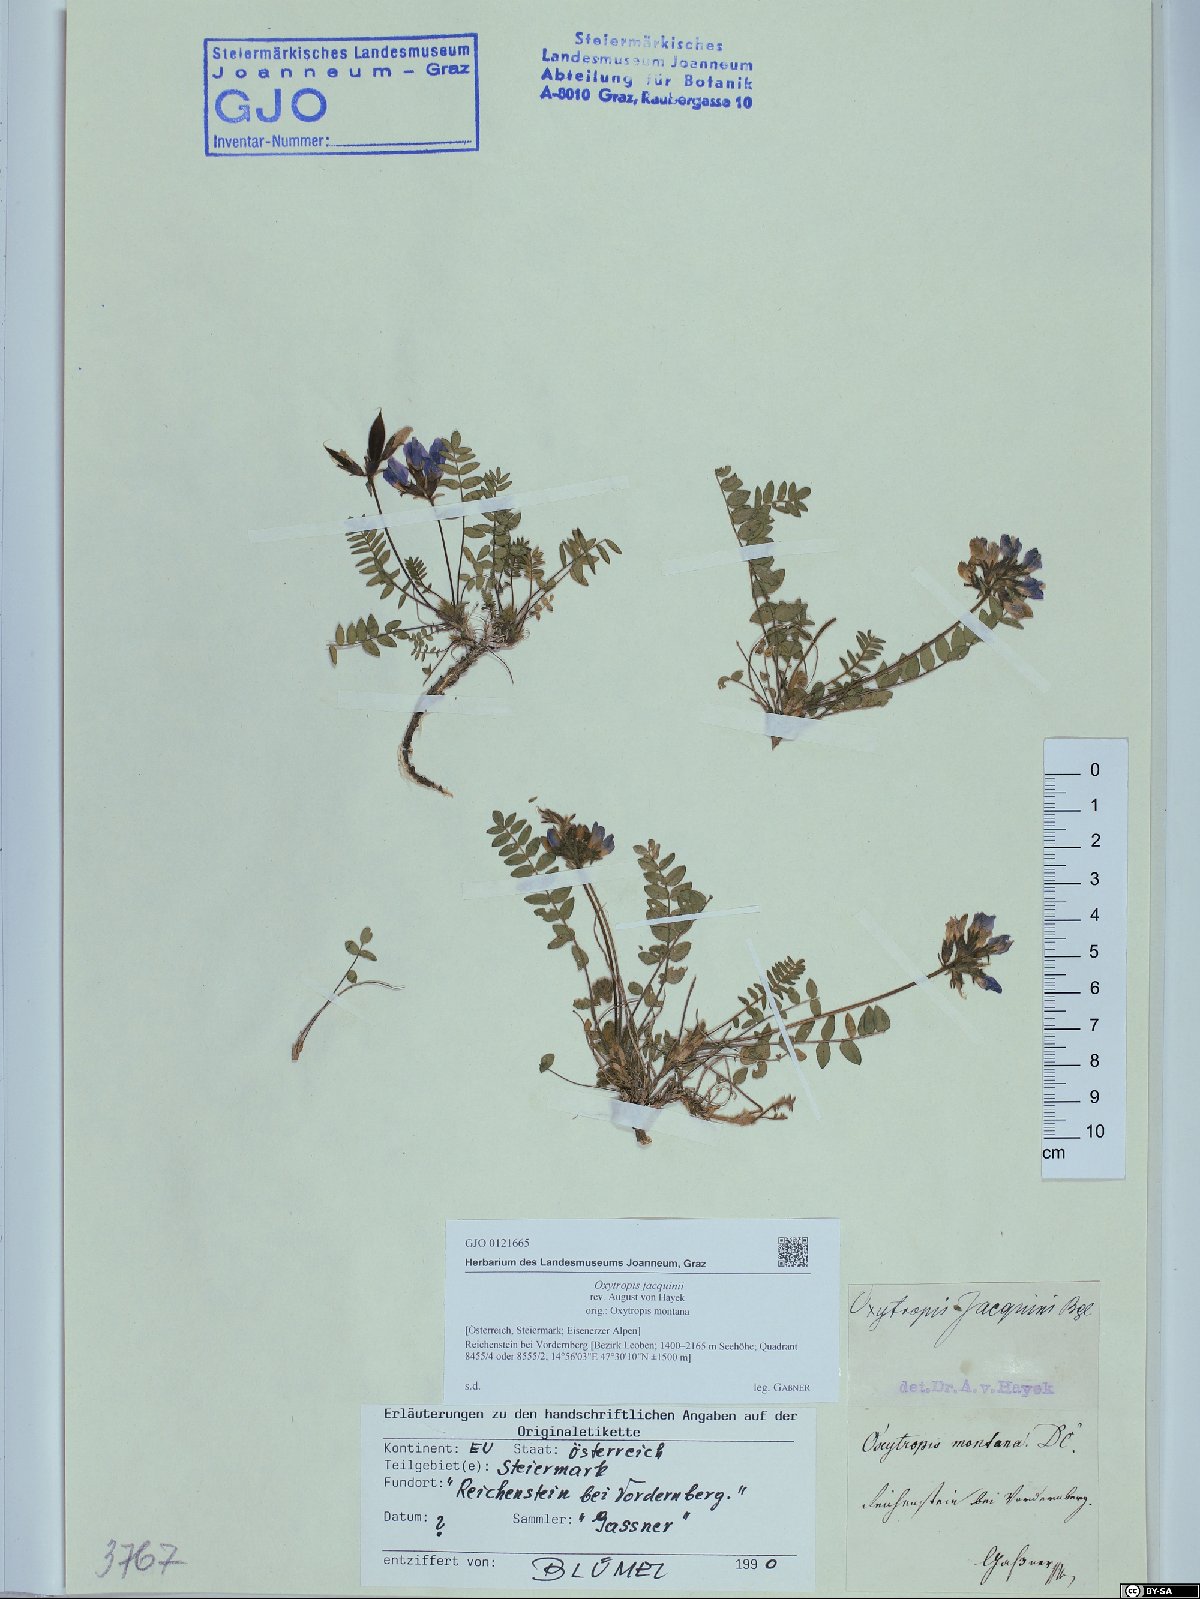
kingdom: Plantae
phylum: Tracheophyta
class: Magnoliopsida
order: Fabales
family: Fabaceae
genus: Oxytropis
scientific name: Oxytropis montana
